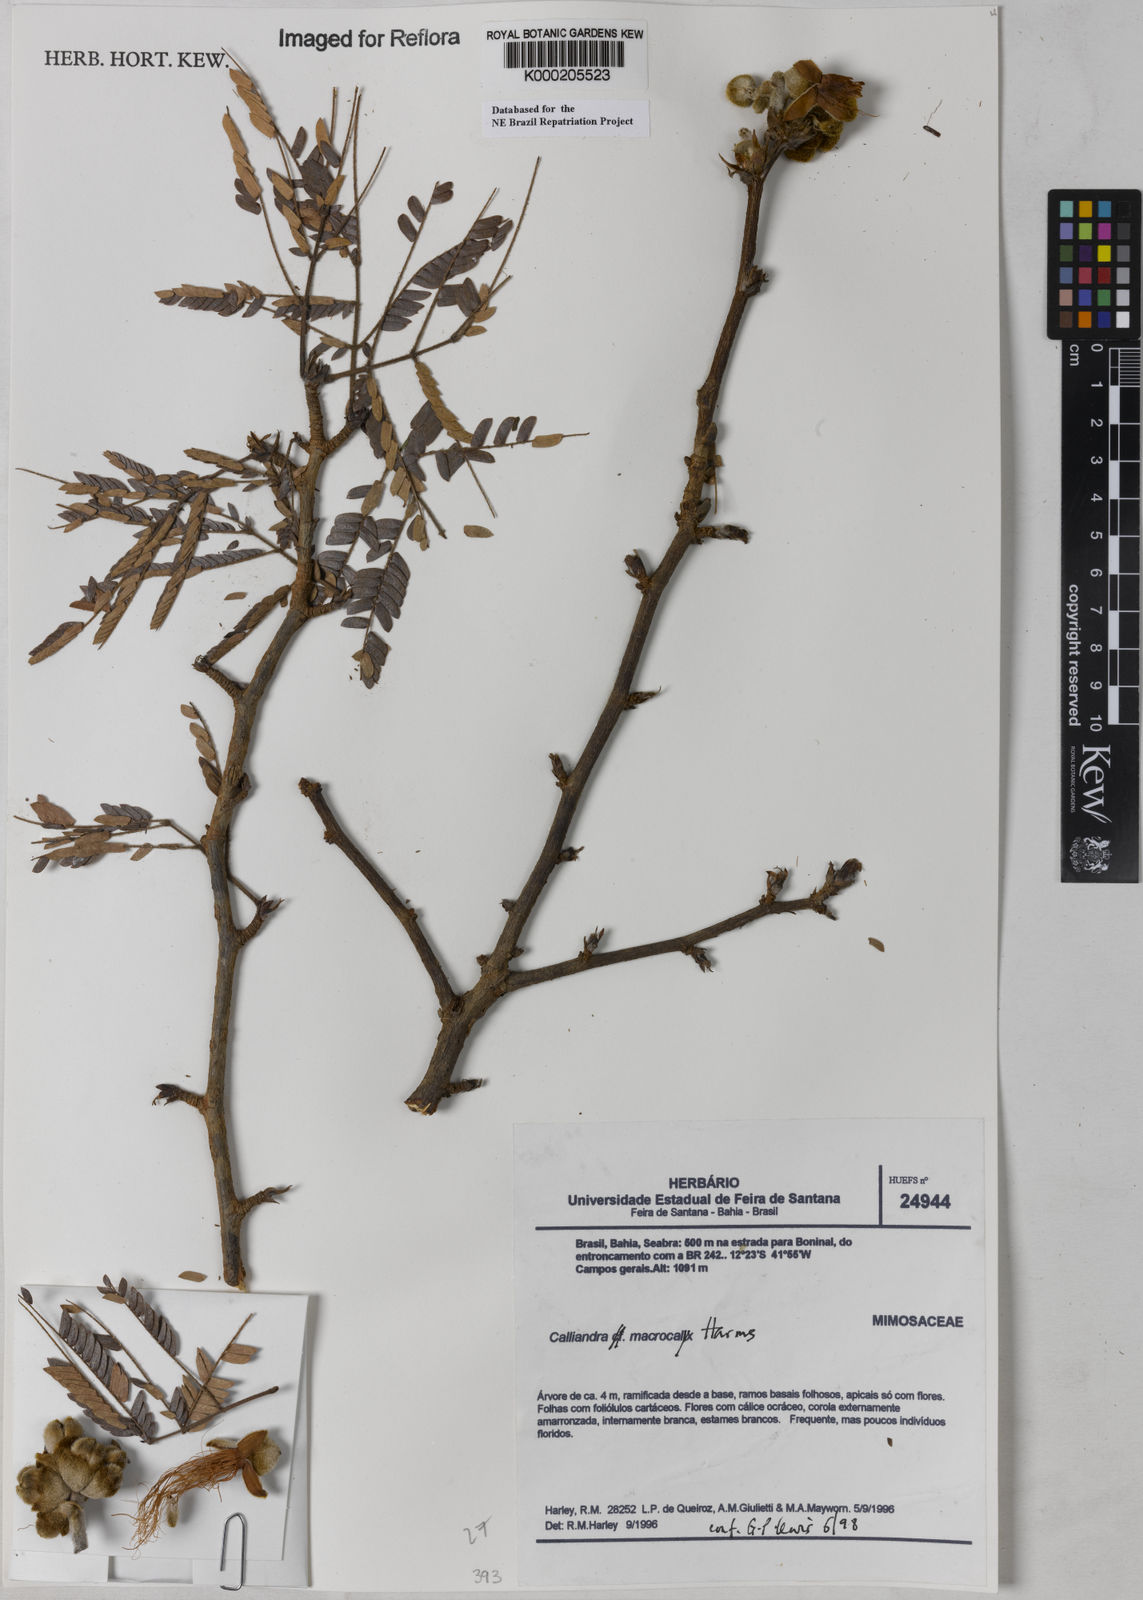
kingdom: Plantae
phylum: Tracheophyta
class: Magnoliopsida
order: Fabales
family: Fabaceae
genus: Calliandra
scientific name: Calliandra macrocalyx
